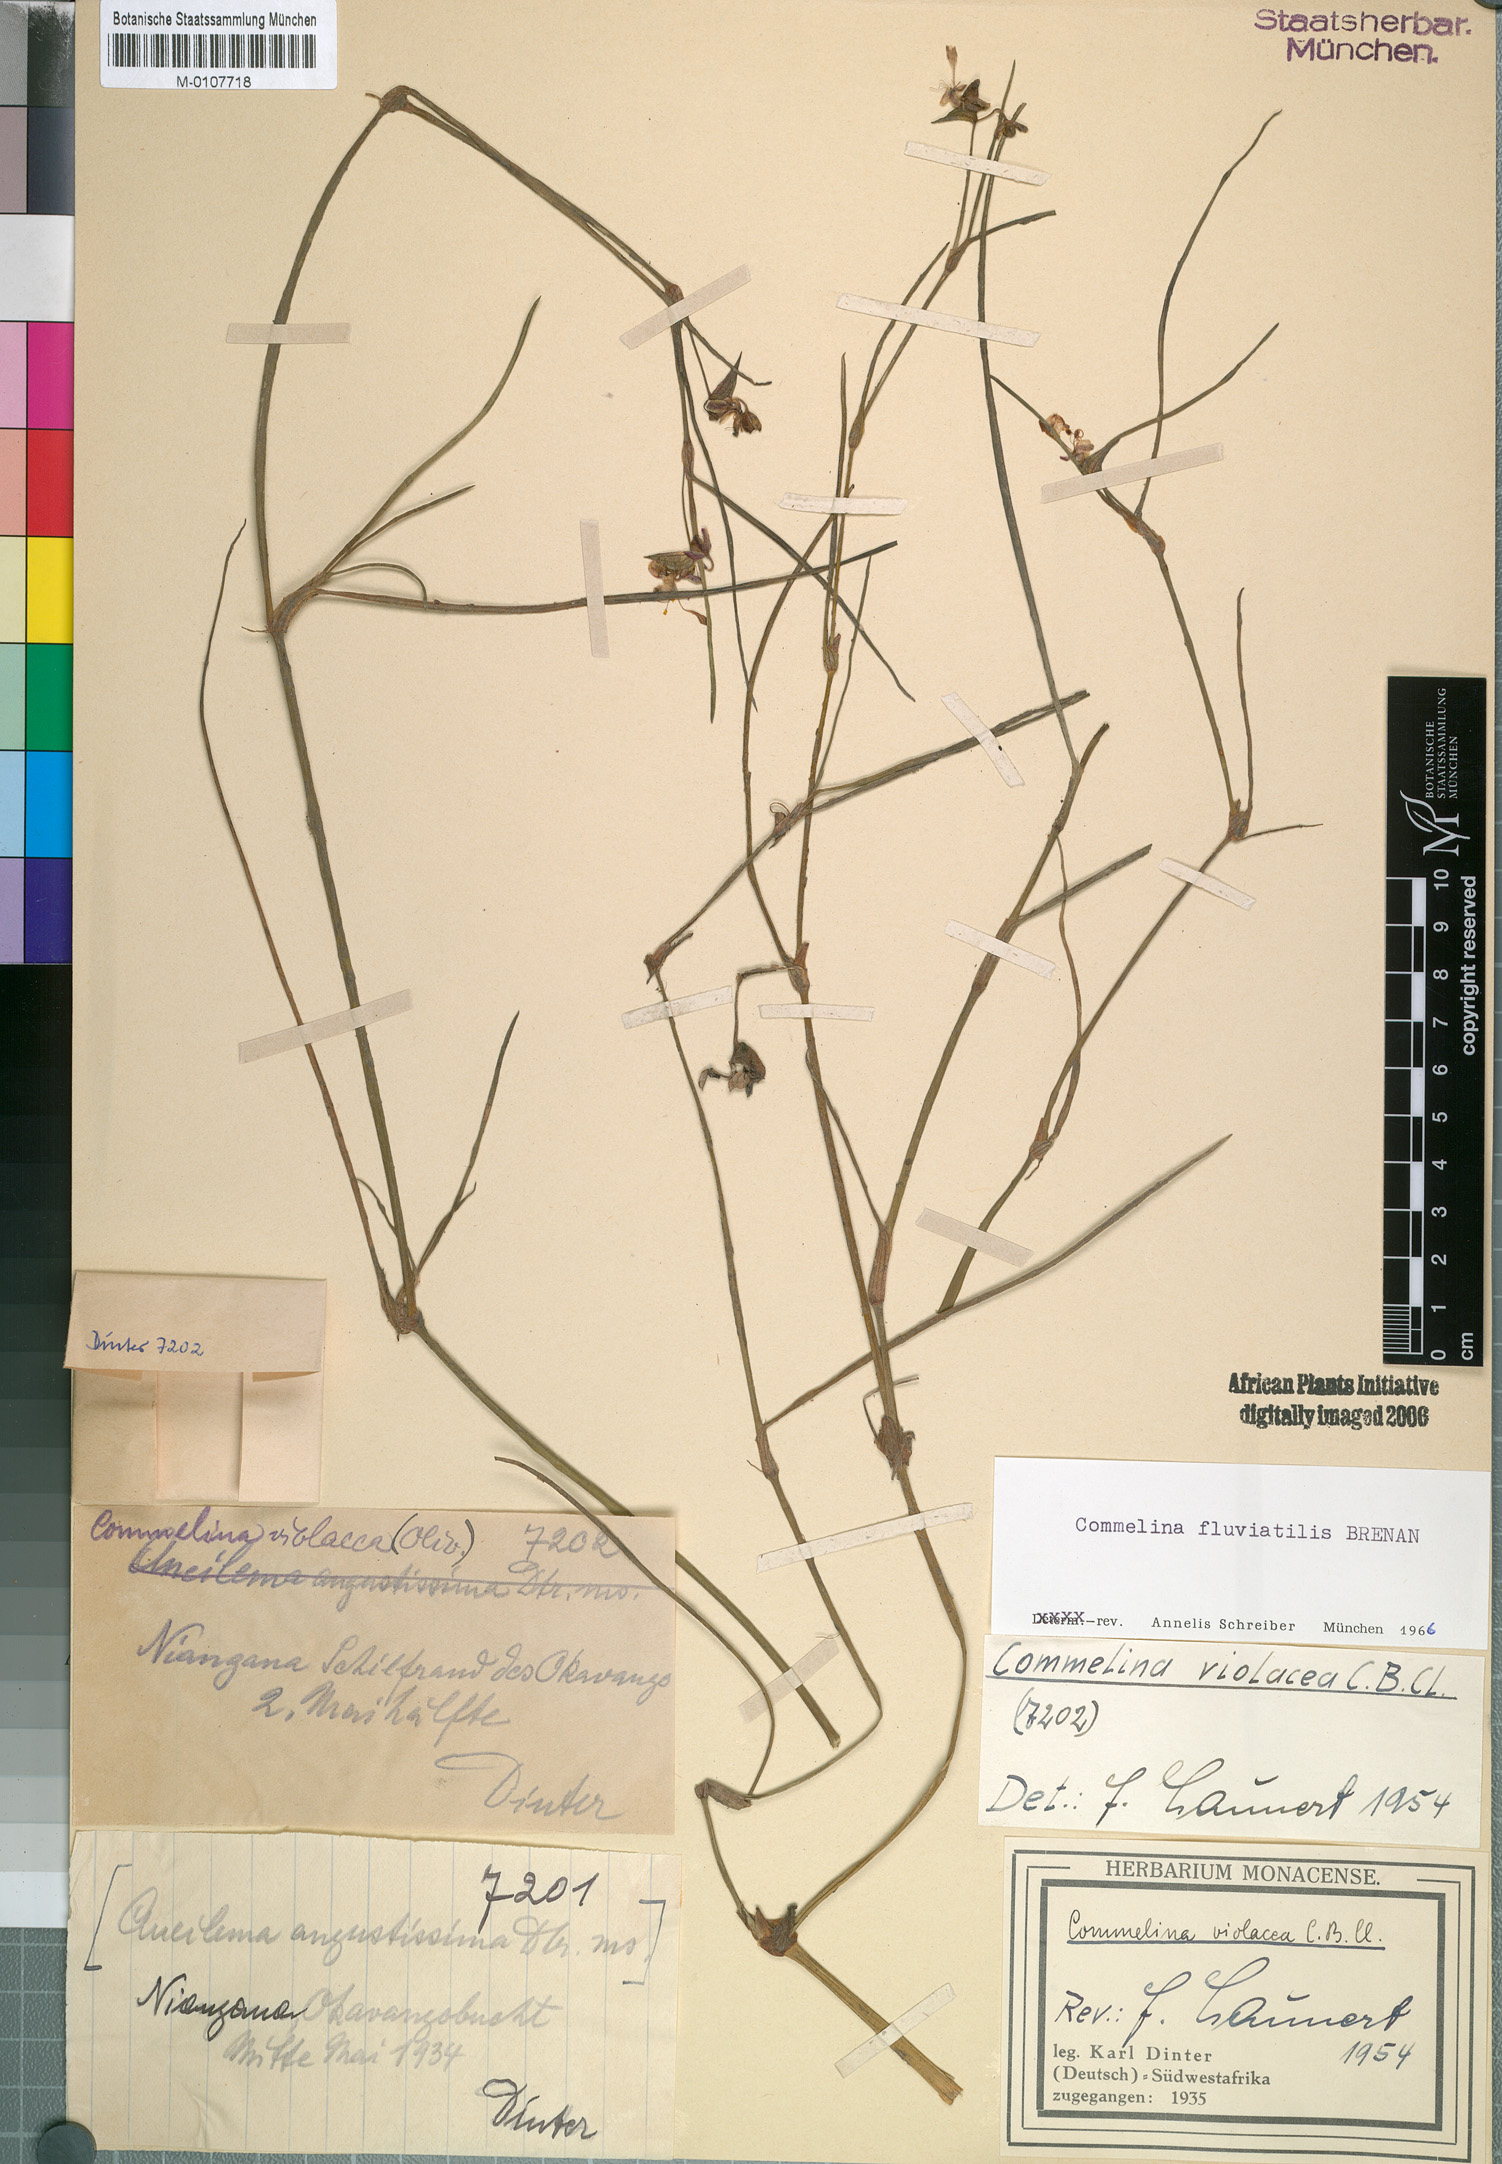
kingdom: Plantae
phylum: Tracheophyta
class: Liliopsida
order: Commelinales
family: Commelinaceae
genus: Commelina
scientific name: Commelina fluviatilis
